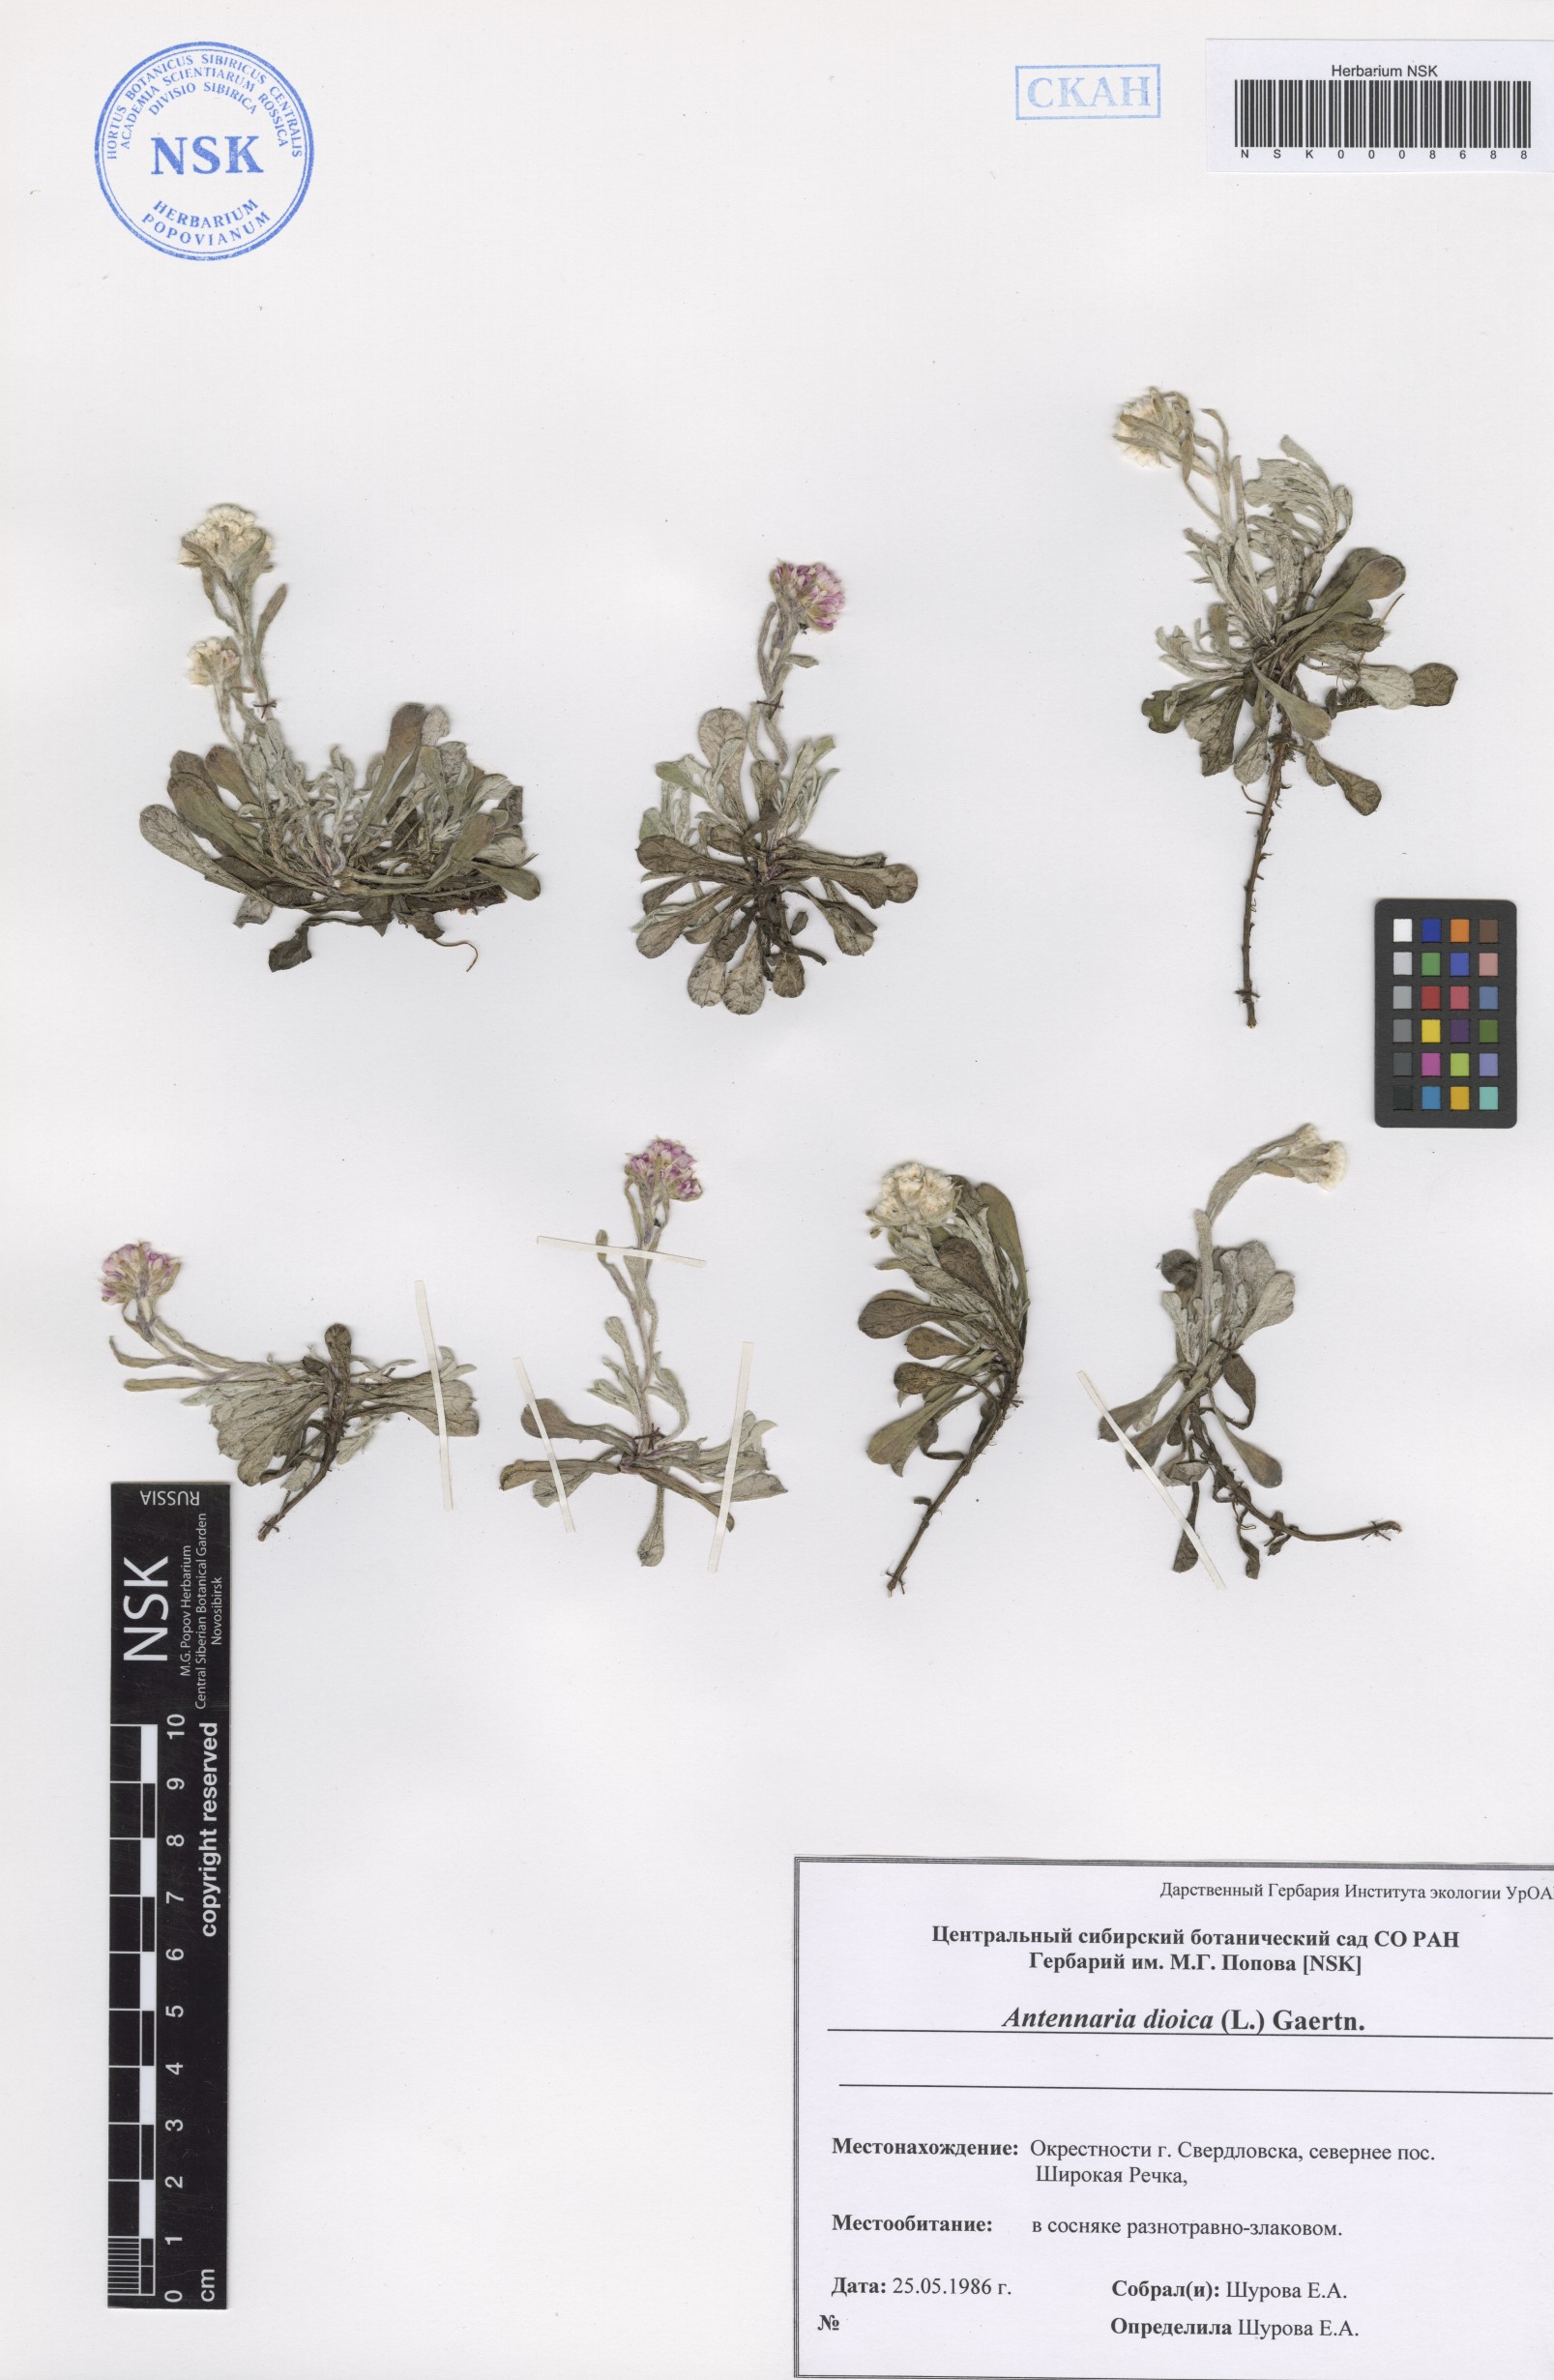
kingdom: Plantae
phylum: Tracheophyta
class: Magnoliopsida
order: Asterales
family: Asteraceae
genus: Antennaria
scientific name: Antennaria dioica
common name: Mountain everlasting
